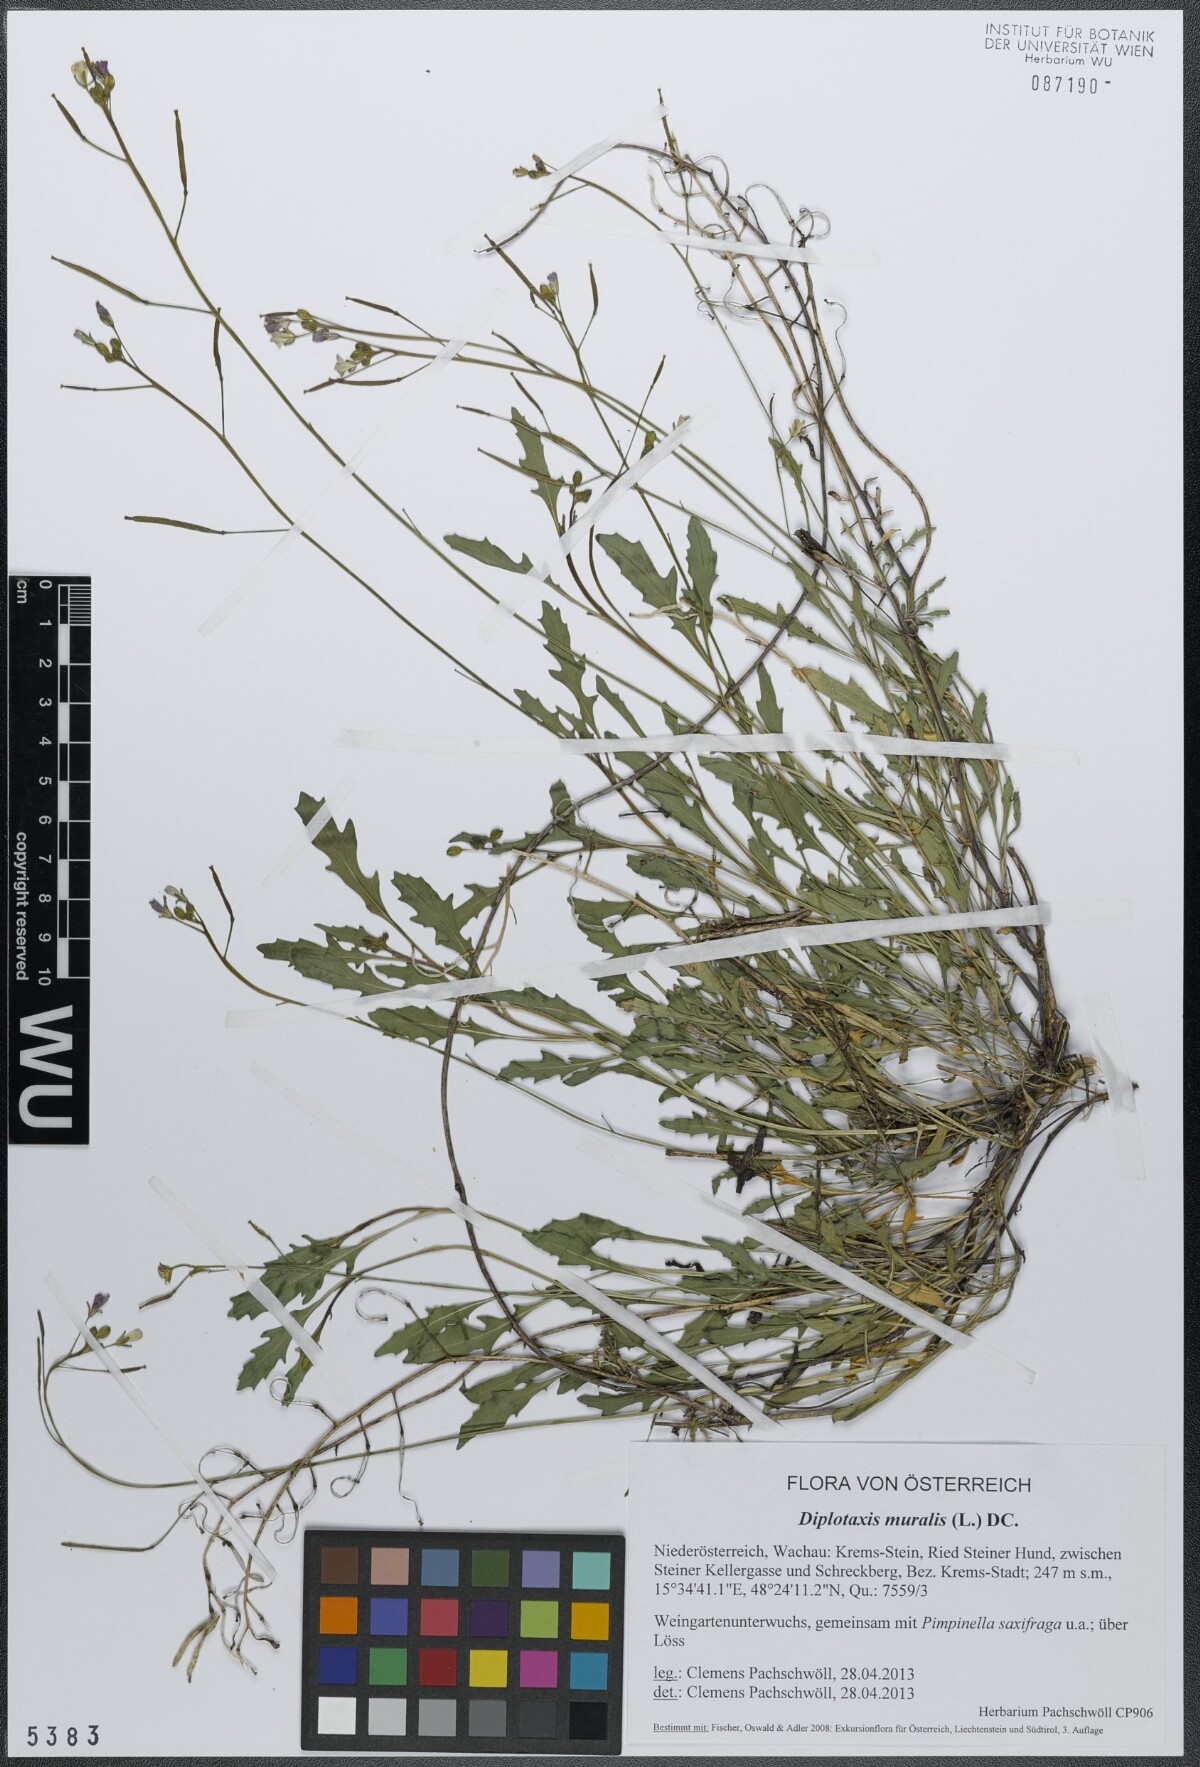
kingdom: Plantae
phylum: Tracheophyta
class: Magnoliopsida
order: Brassicales
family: Brassicaceae
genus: Diplotaxis
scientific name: Diplotaxis muralis
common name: Annual wall-rocket
